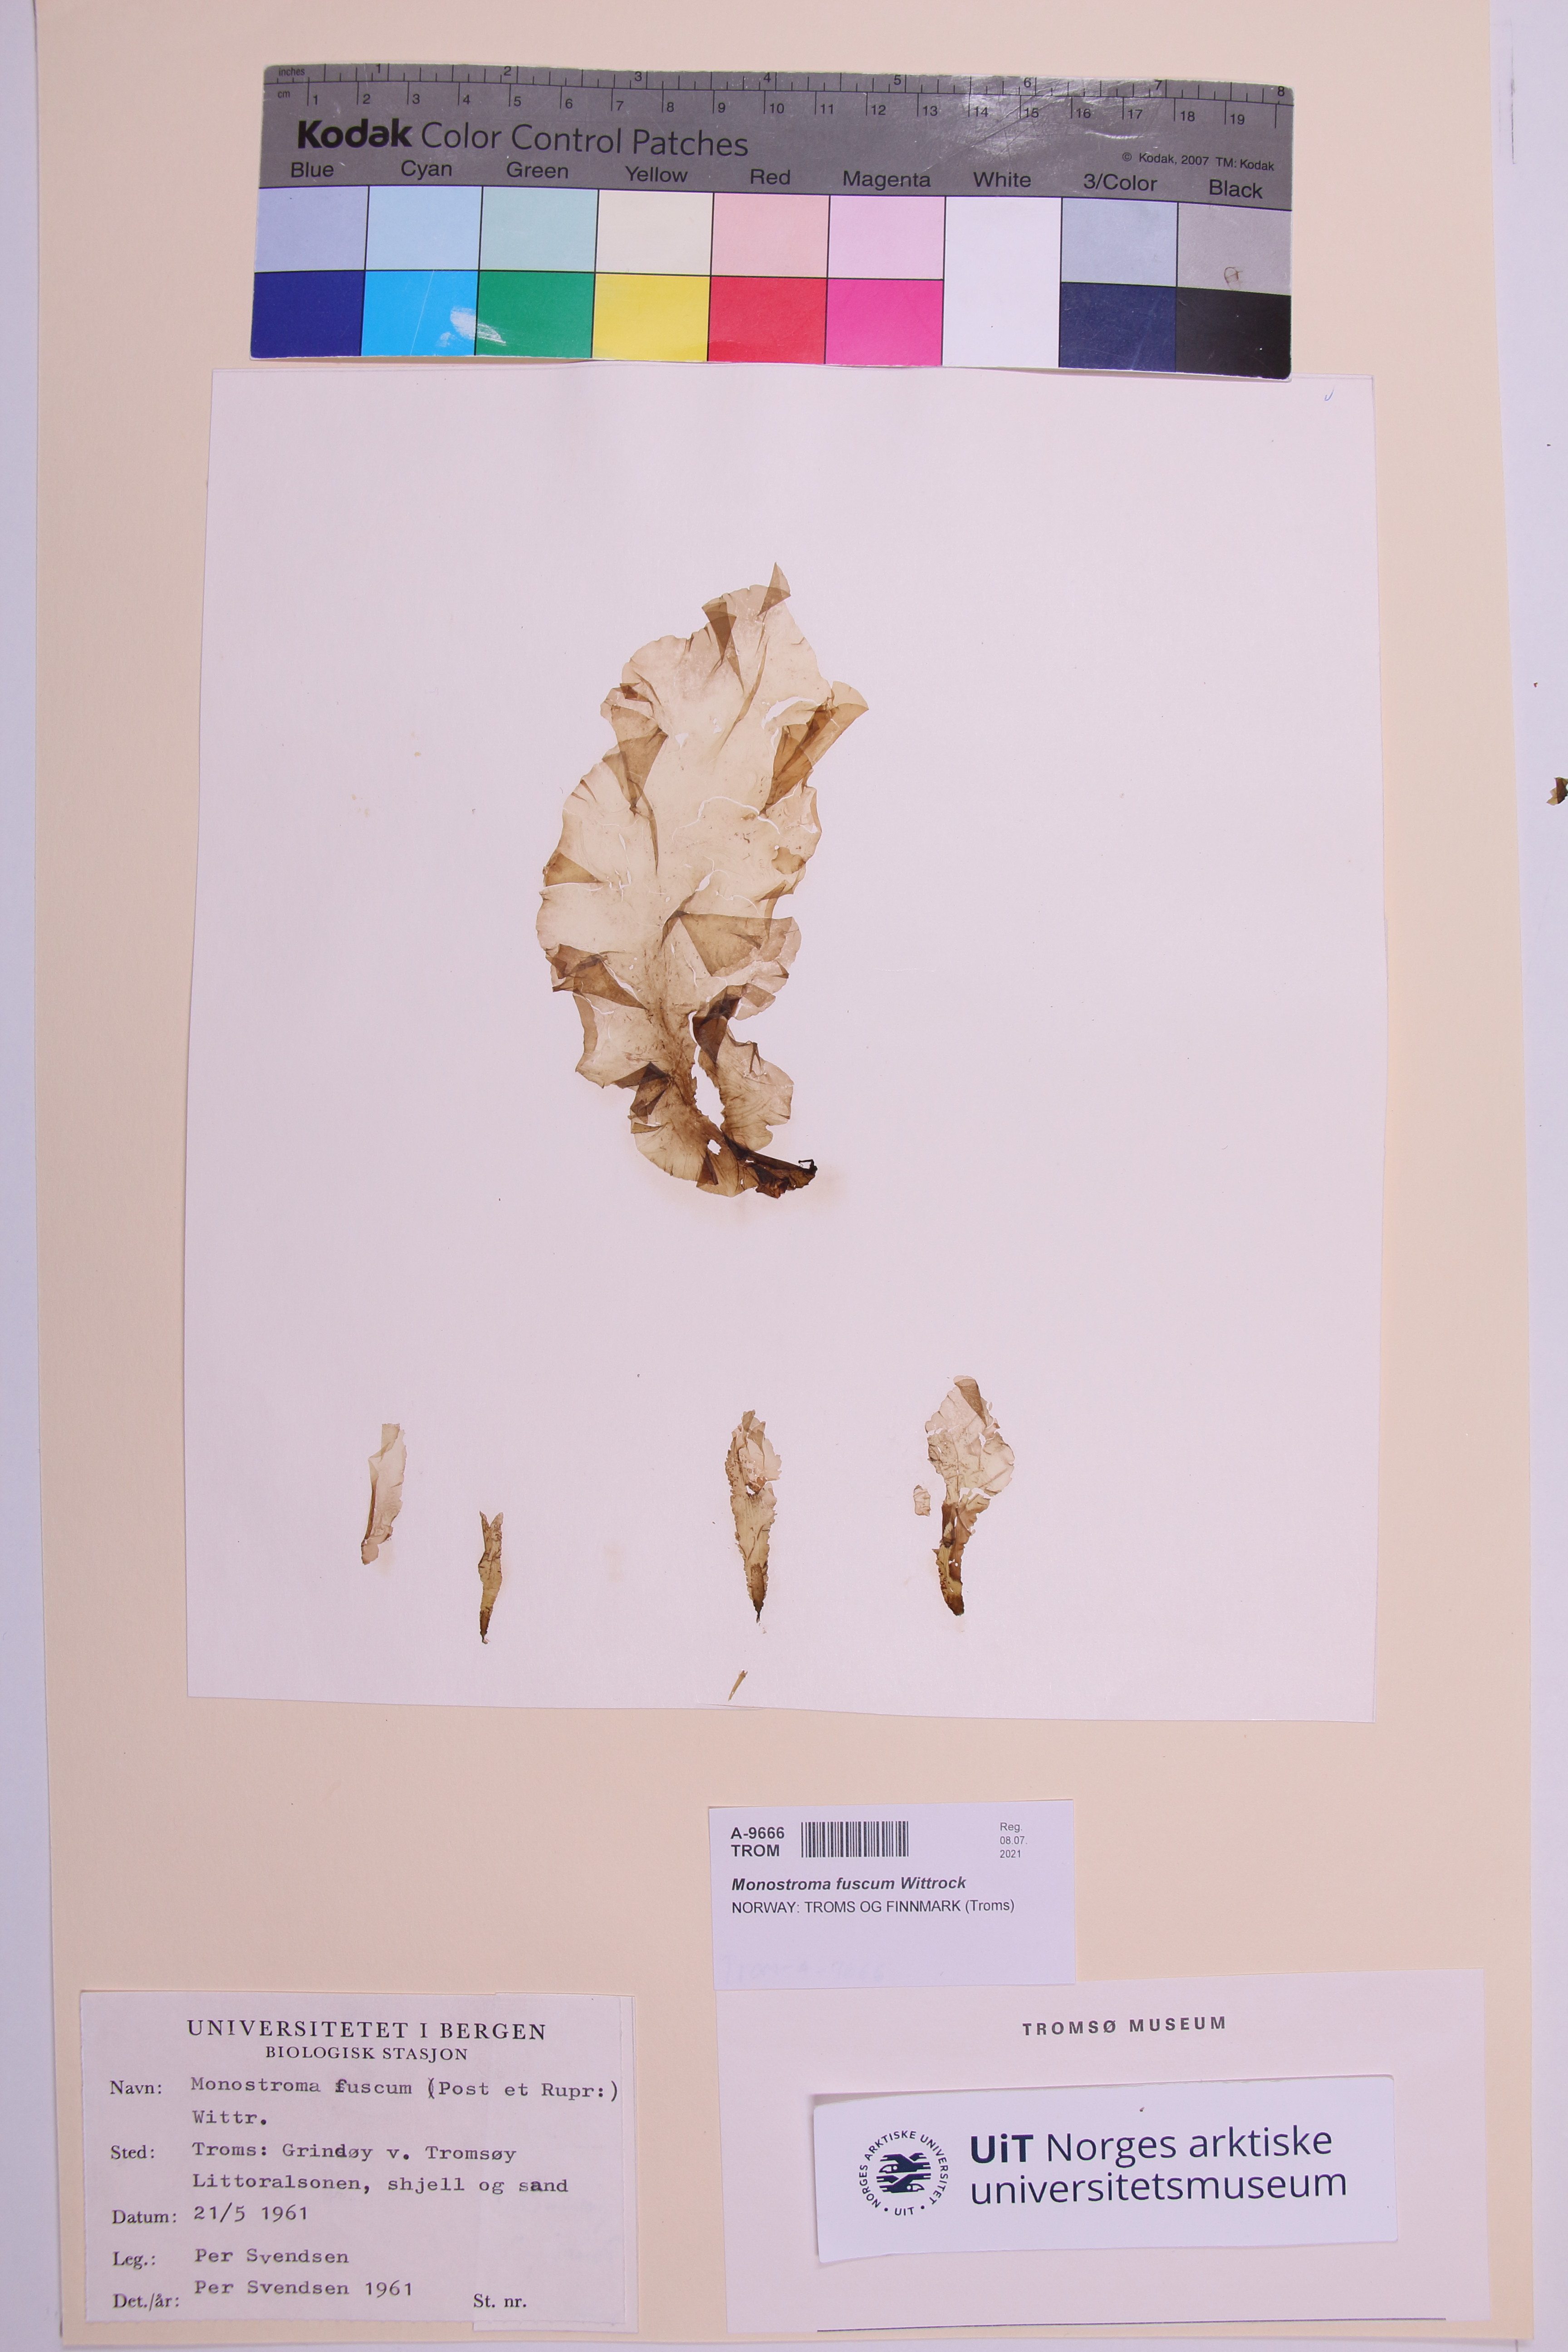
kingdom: Plantae
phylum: Chlorophyta
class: Ulvophyceae
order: Ulvales
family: Ulvaceae
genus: Ulvaria
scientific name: Ulvaria splendens
